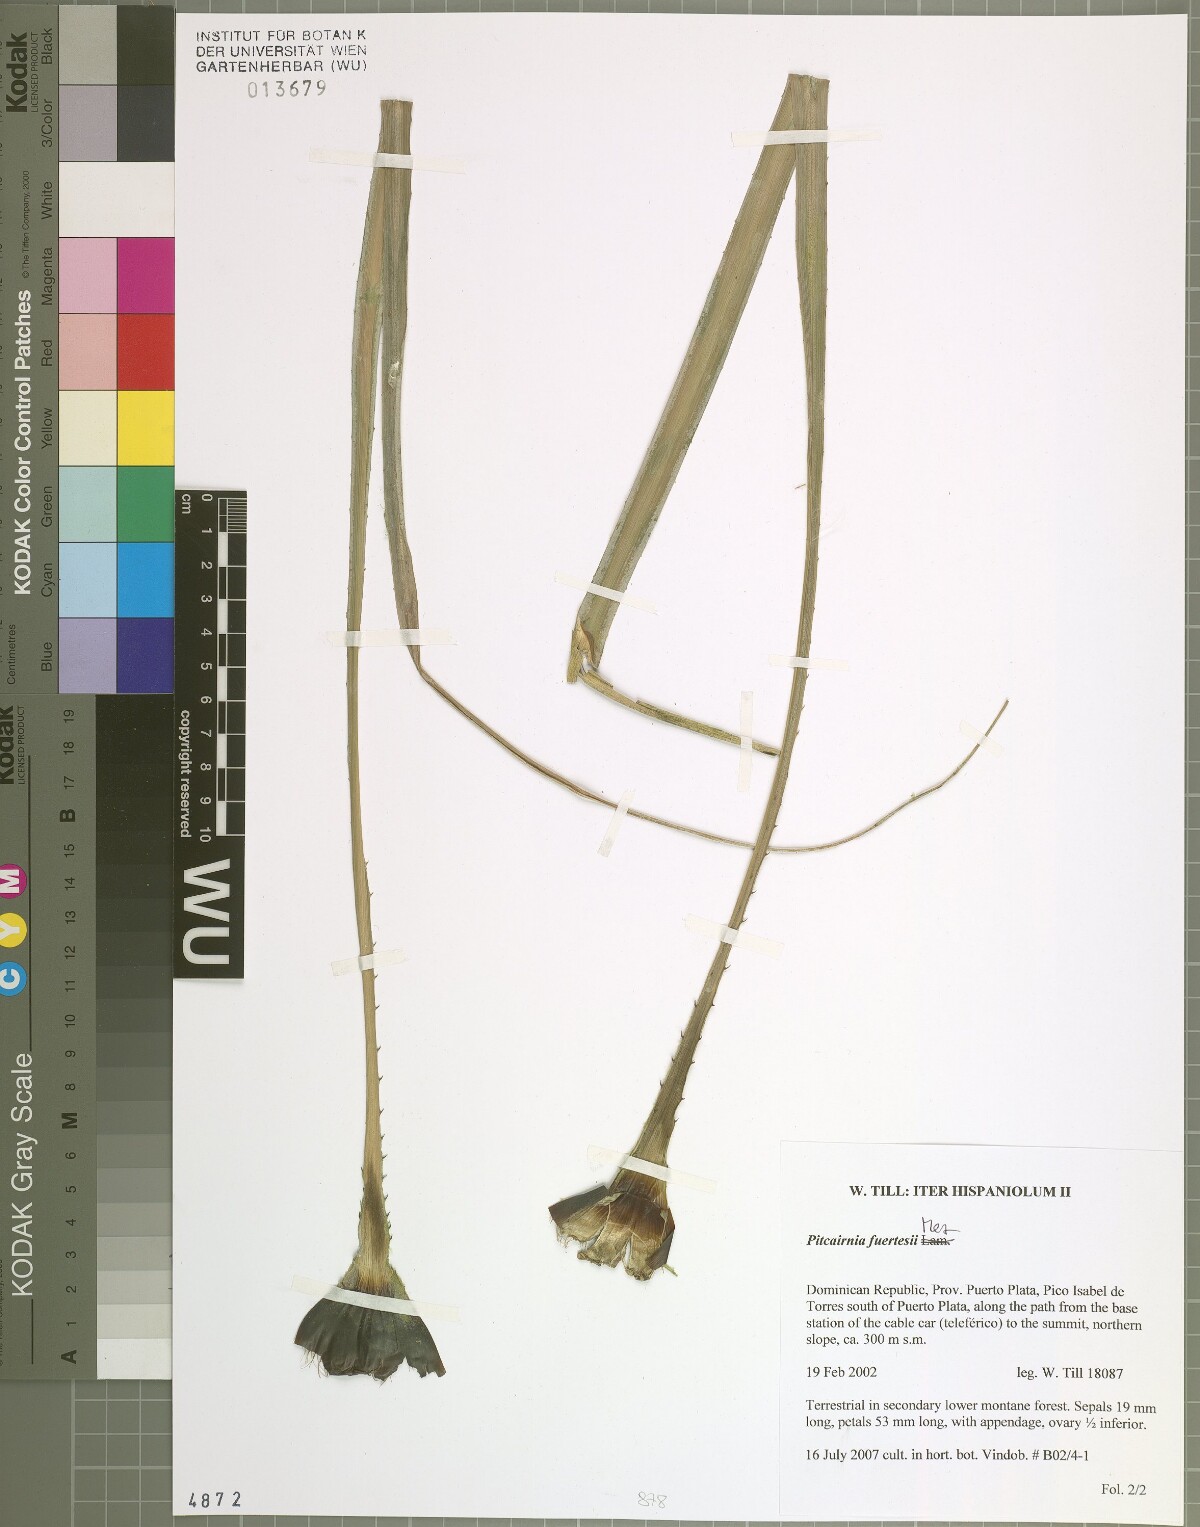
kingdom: Plantae
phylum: Tracheophyta
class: Liliopsida
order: Poales
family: Bromeliaceae
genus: Pitcairnia
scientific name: Pitcairnia fuertesii
